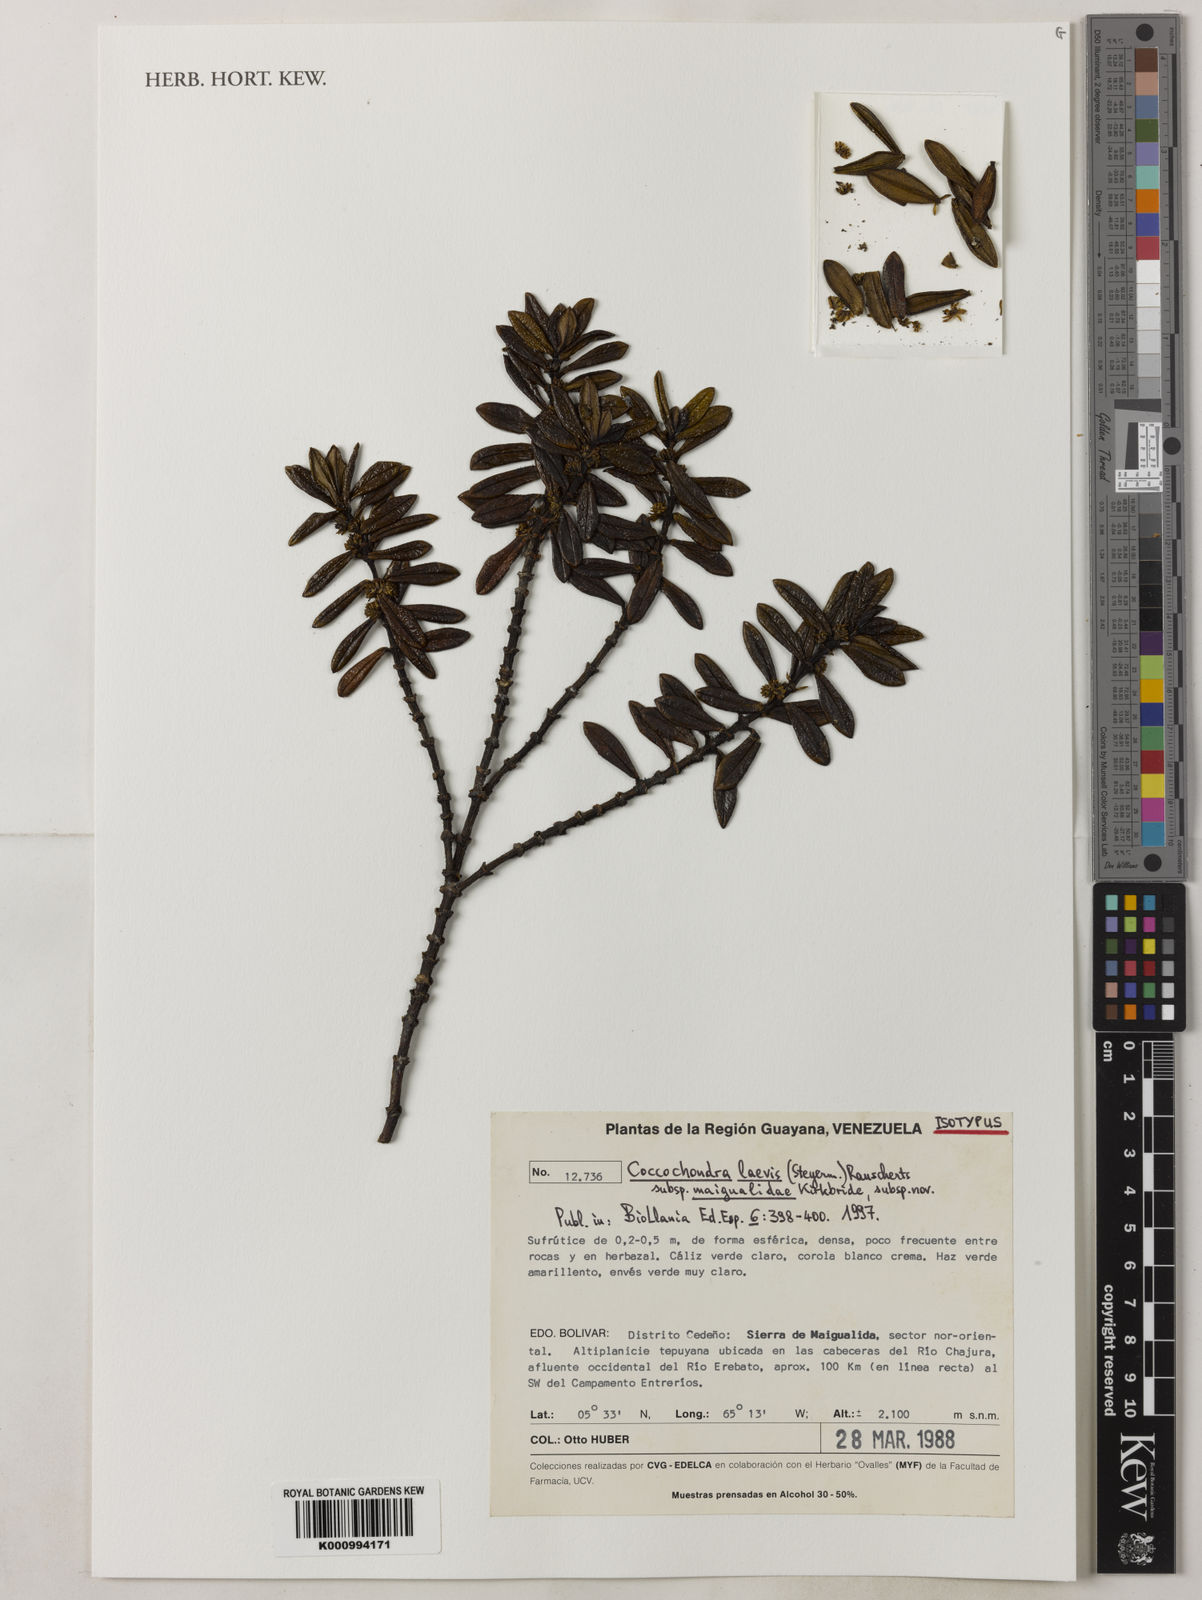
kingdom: Plantae
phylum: Tracheophyta
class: Magnoliopsida
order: Gentianales
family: Rubiaceae
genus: Coccochondra
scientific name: Coccochondra laevis
